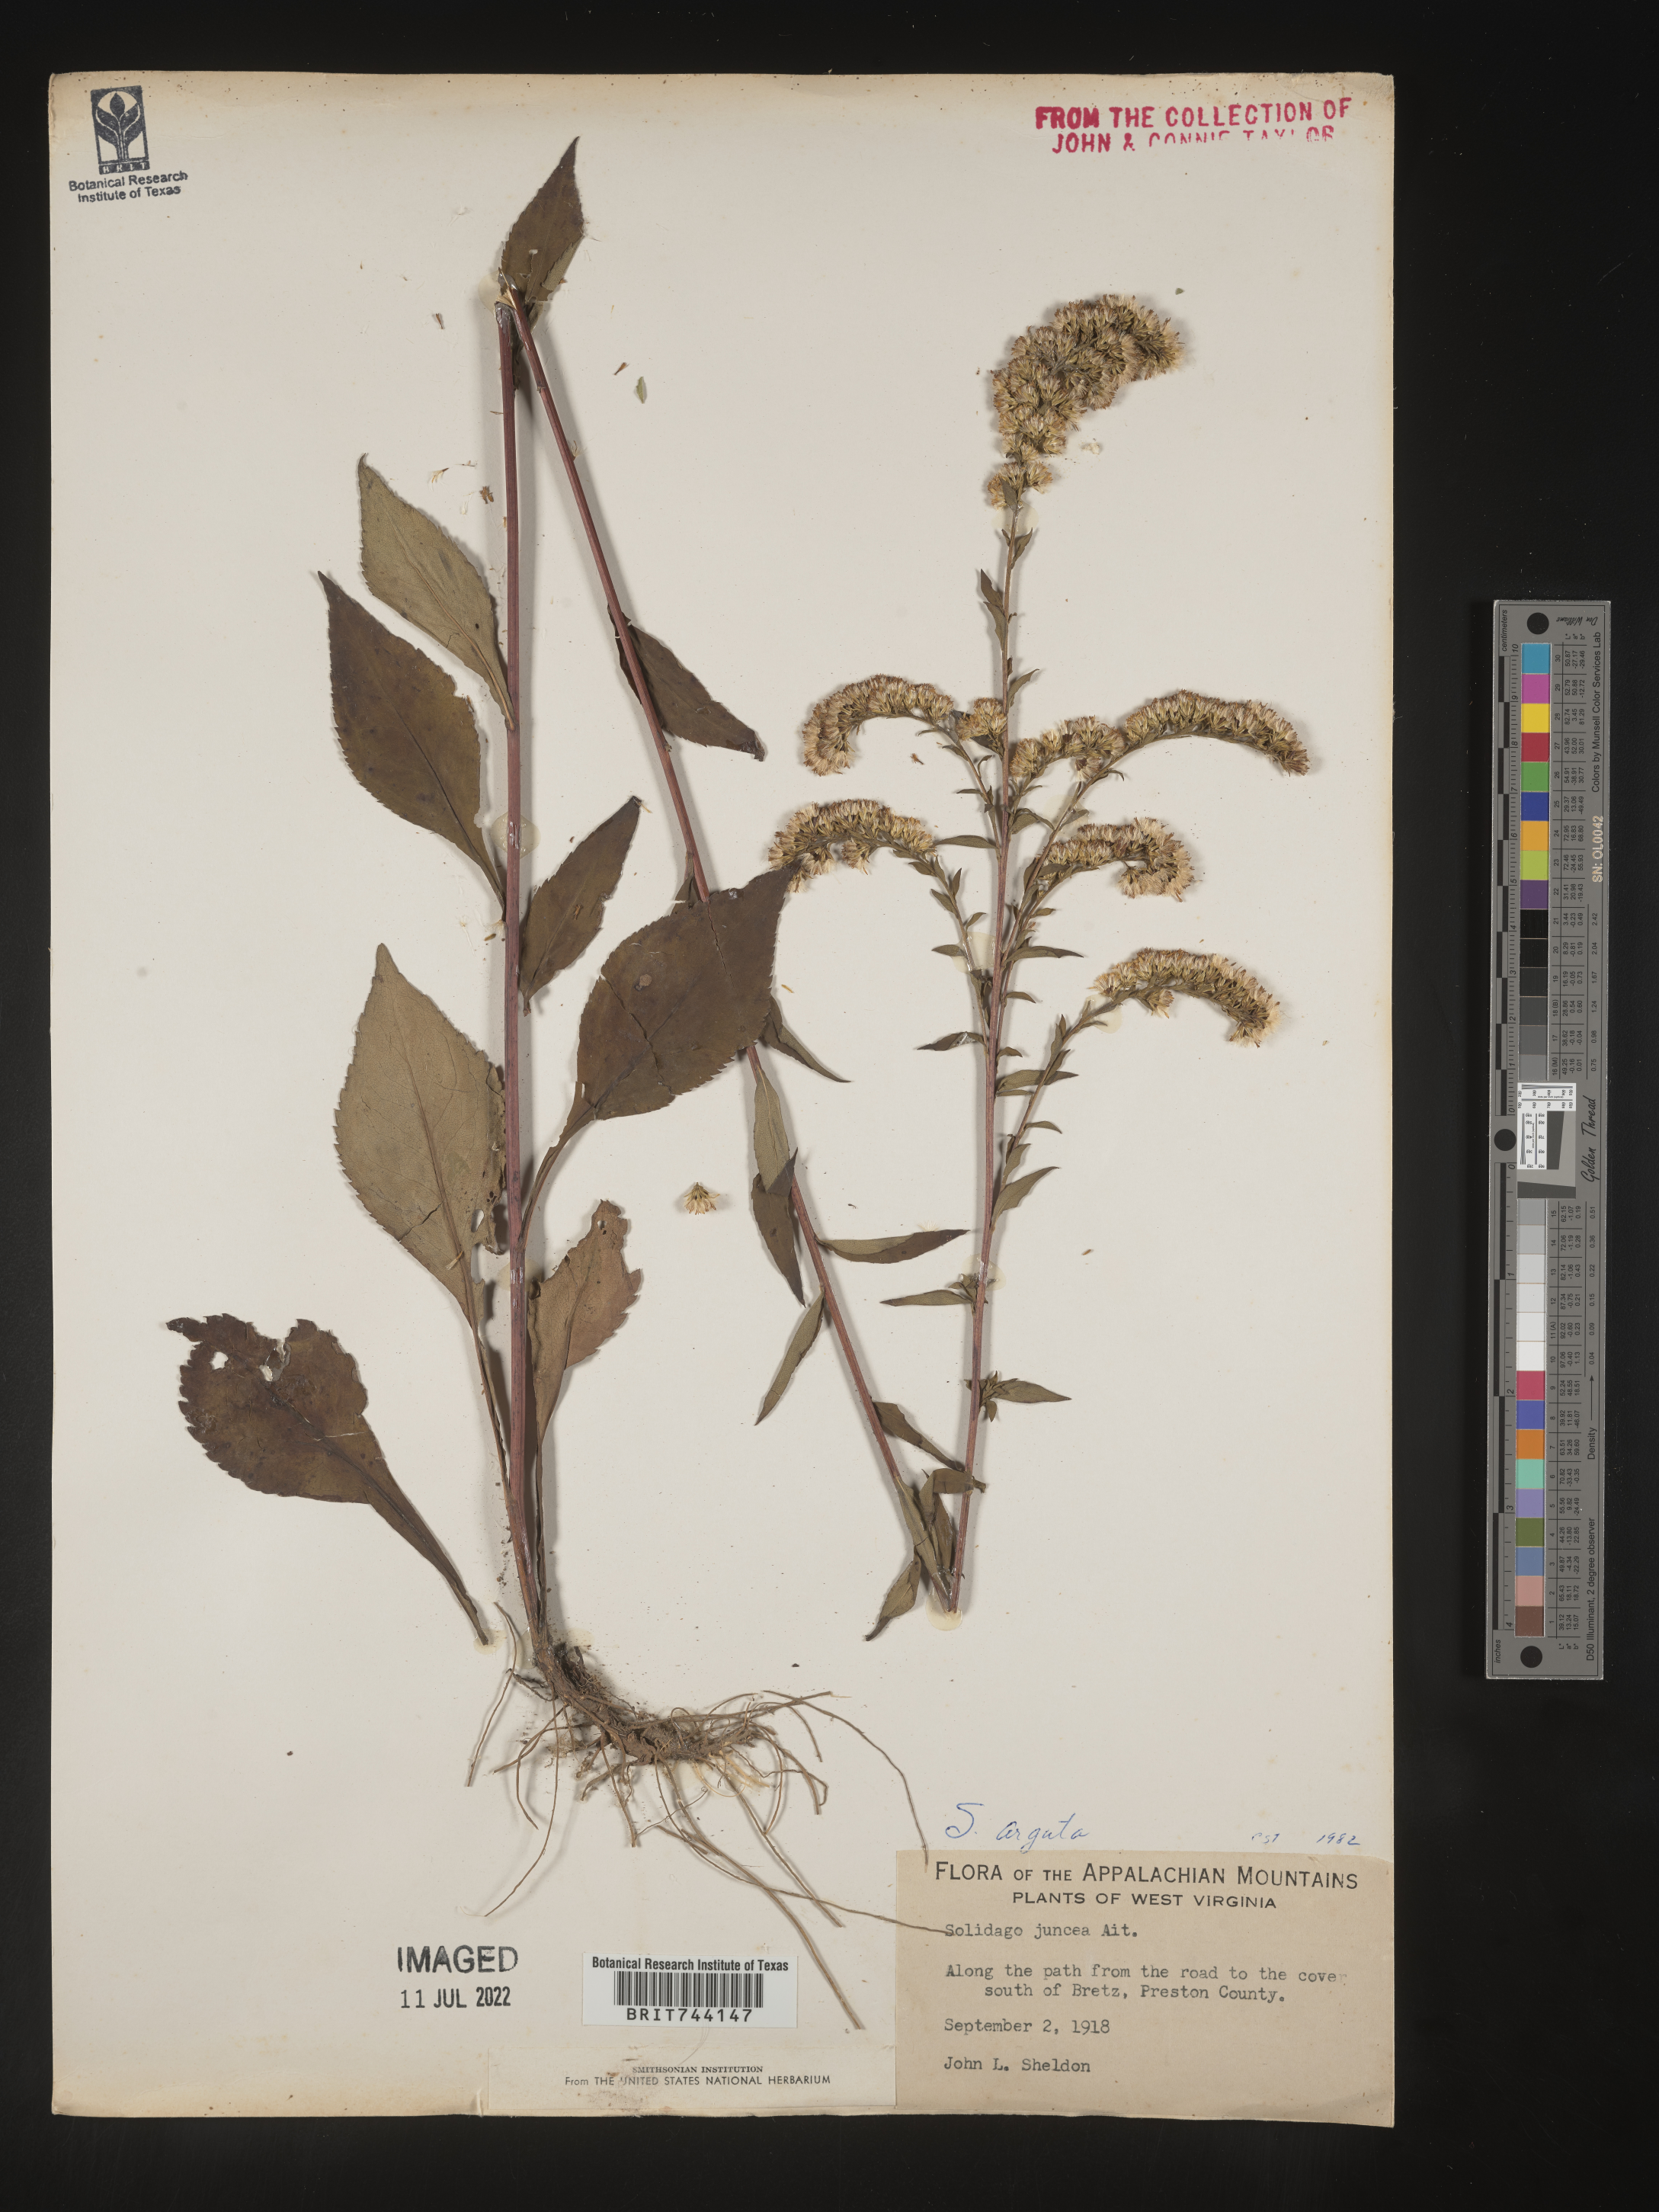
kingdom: Plantae
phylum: Tracheophyta
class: Magnoliopsida
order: Asterales
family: Asteraceae
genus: Solidago
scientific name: Solidago arguta
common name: Atlantic goldenrod
